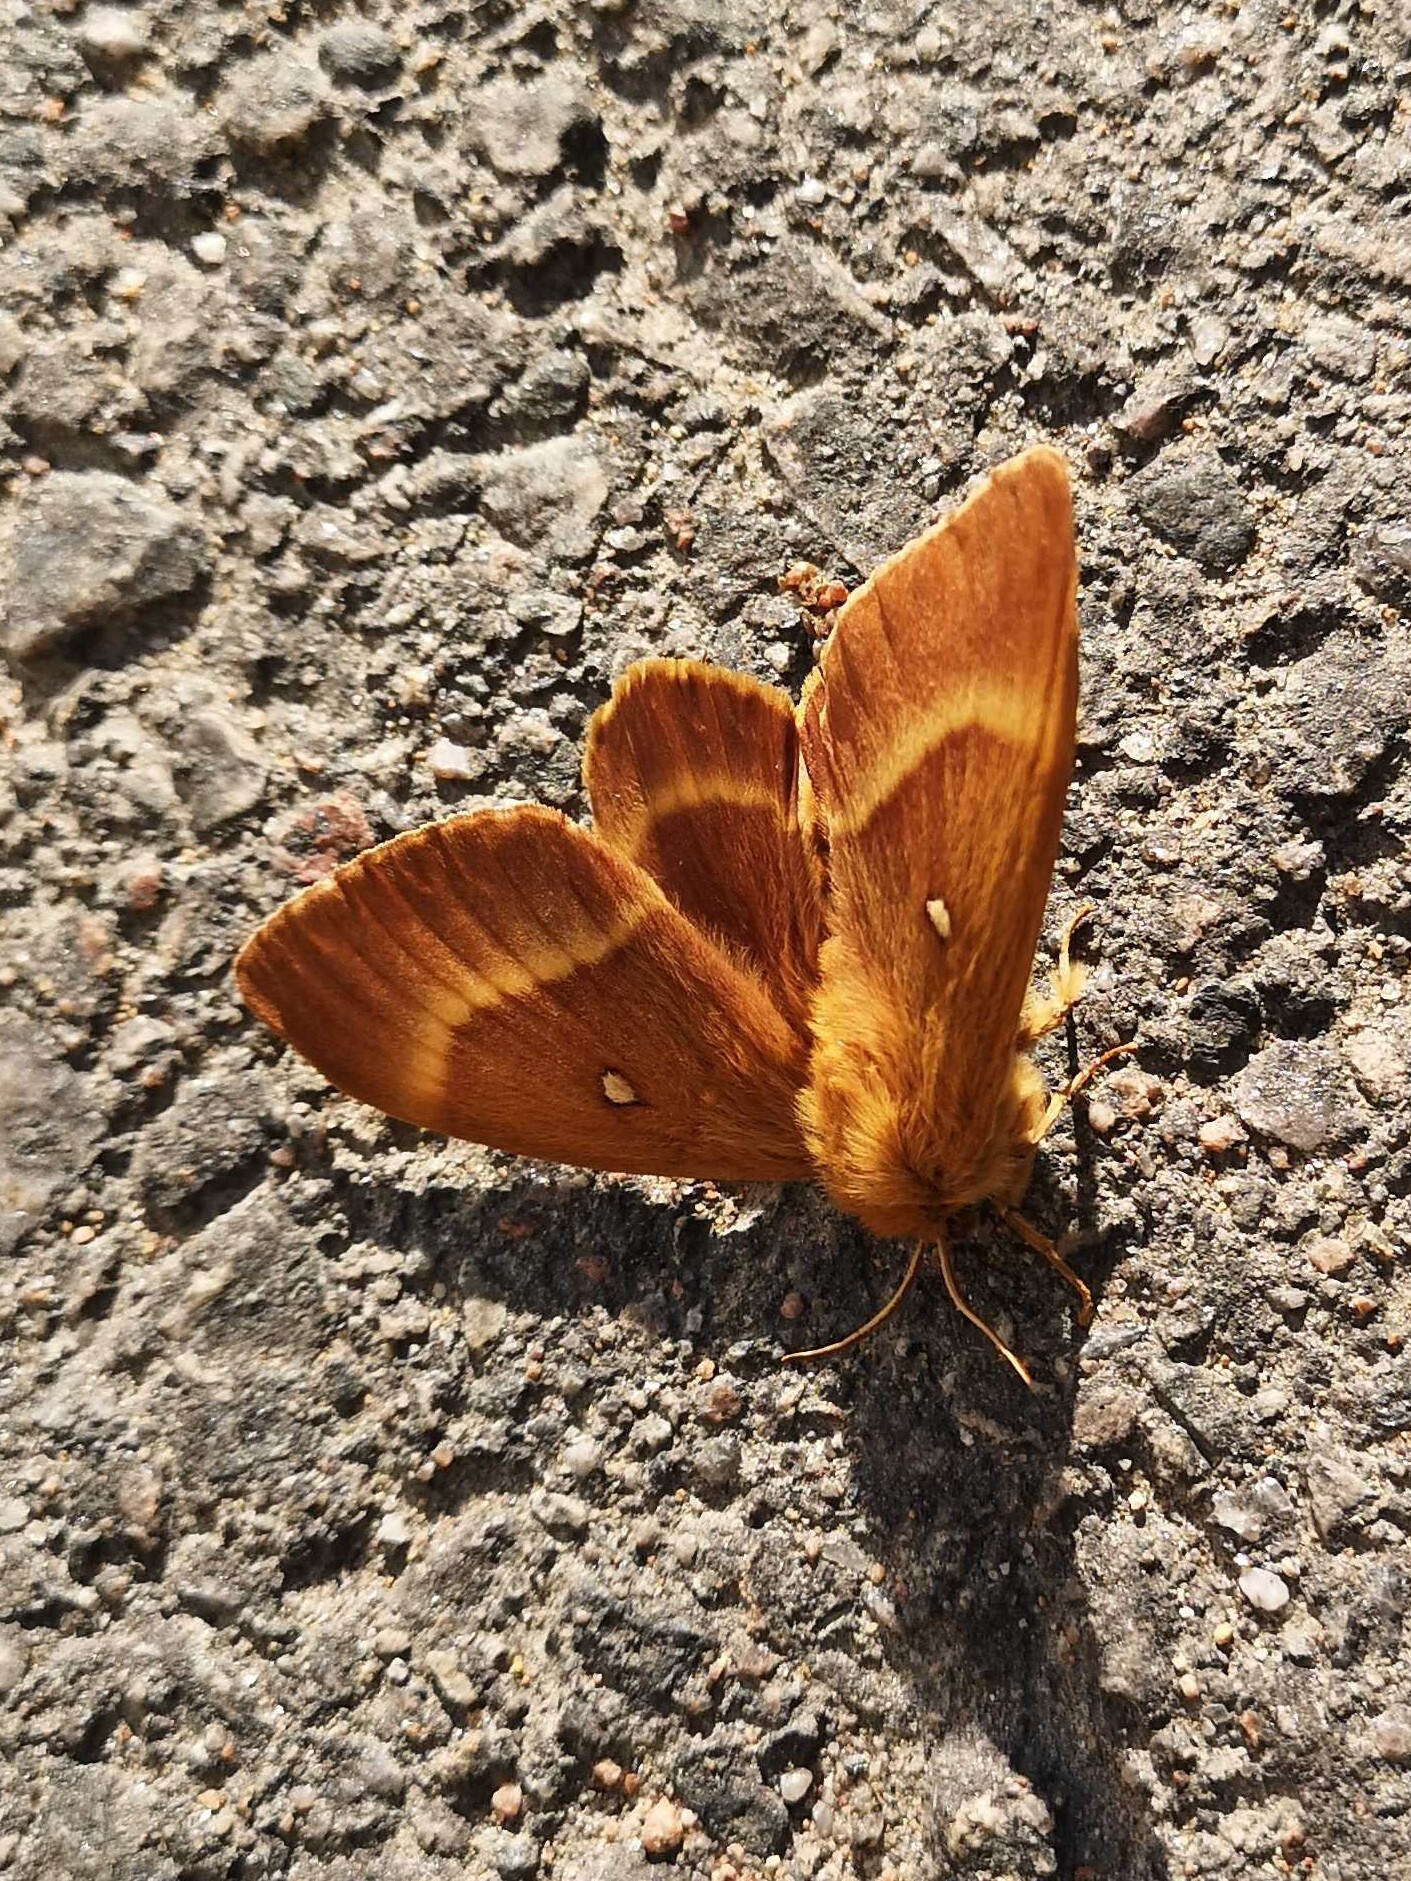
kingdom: Animalia
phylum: Arthropoda
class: Insecta
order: Lepidoptera
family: Lasiocampidae
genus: Lasiocampa
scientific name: Lasiocampa quercus
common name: Oak eggar
